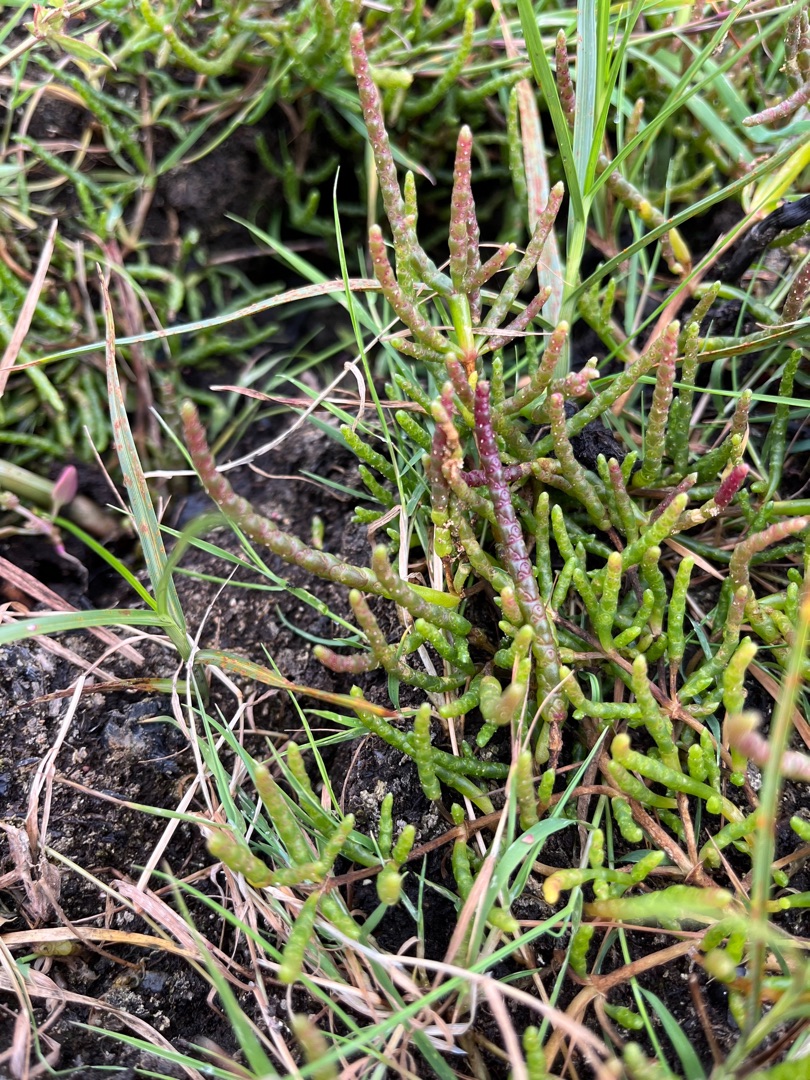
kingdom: Plantae
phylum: Tracheophyta
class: Magnoliopsida
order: Caryophyllales
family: Amaranthaceae
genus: Salicornia
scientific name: Salicornia europaea
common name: Almindelig salturt
